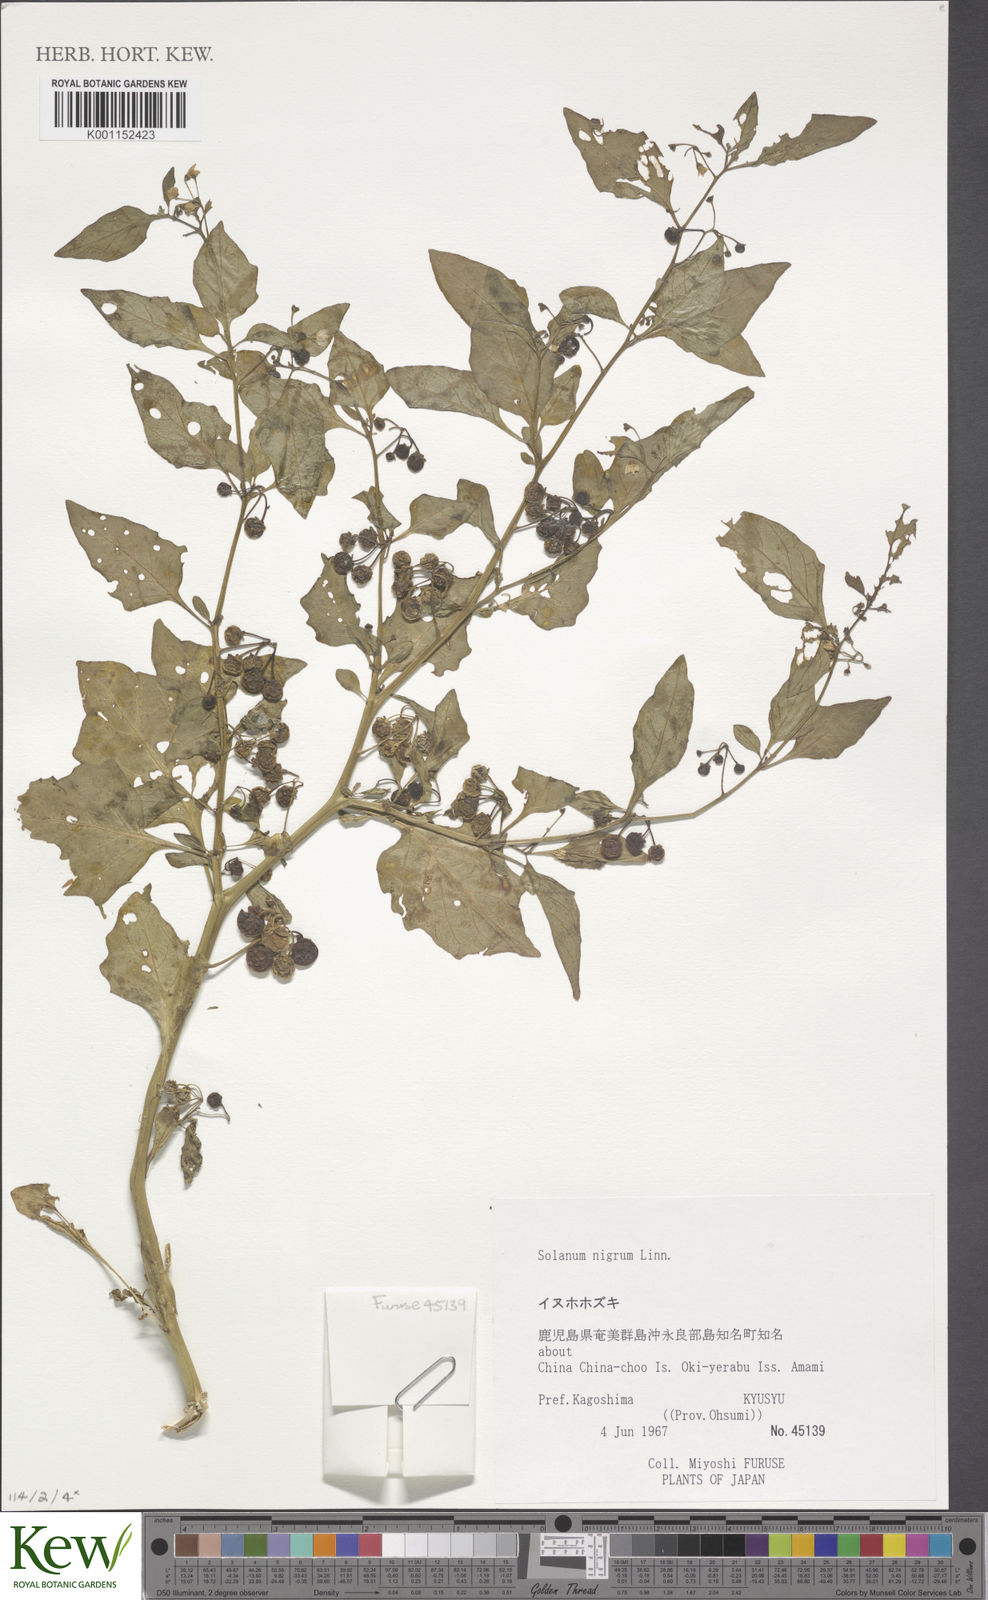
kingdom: Plantae
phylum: Tracheophyta
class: Magnoliopsida
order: Solanales
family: Solanaceae
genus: Solanum
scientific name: Solanum nigrum
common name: Black nightshade
